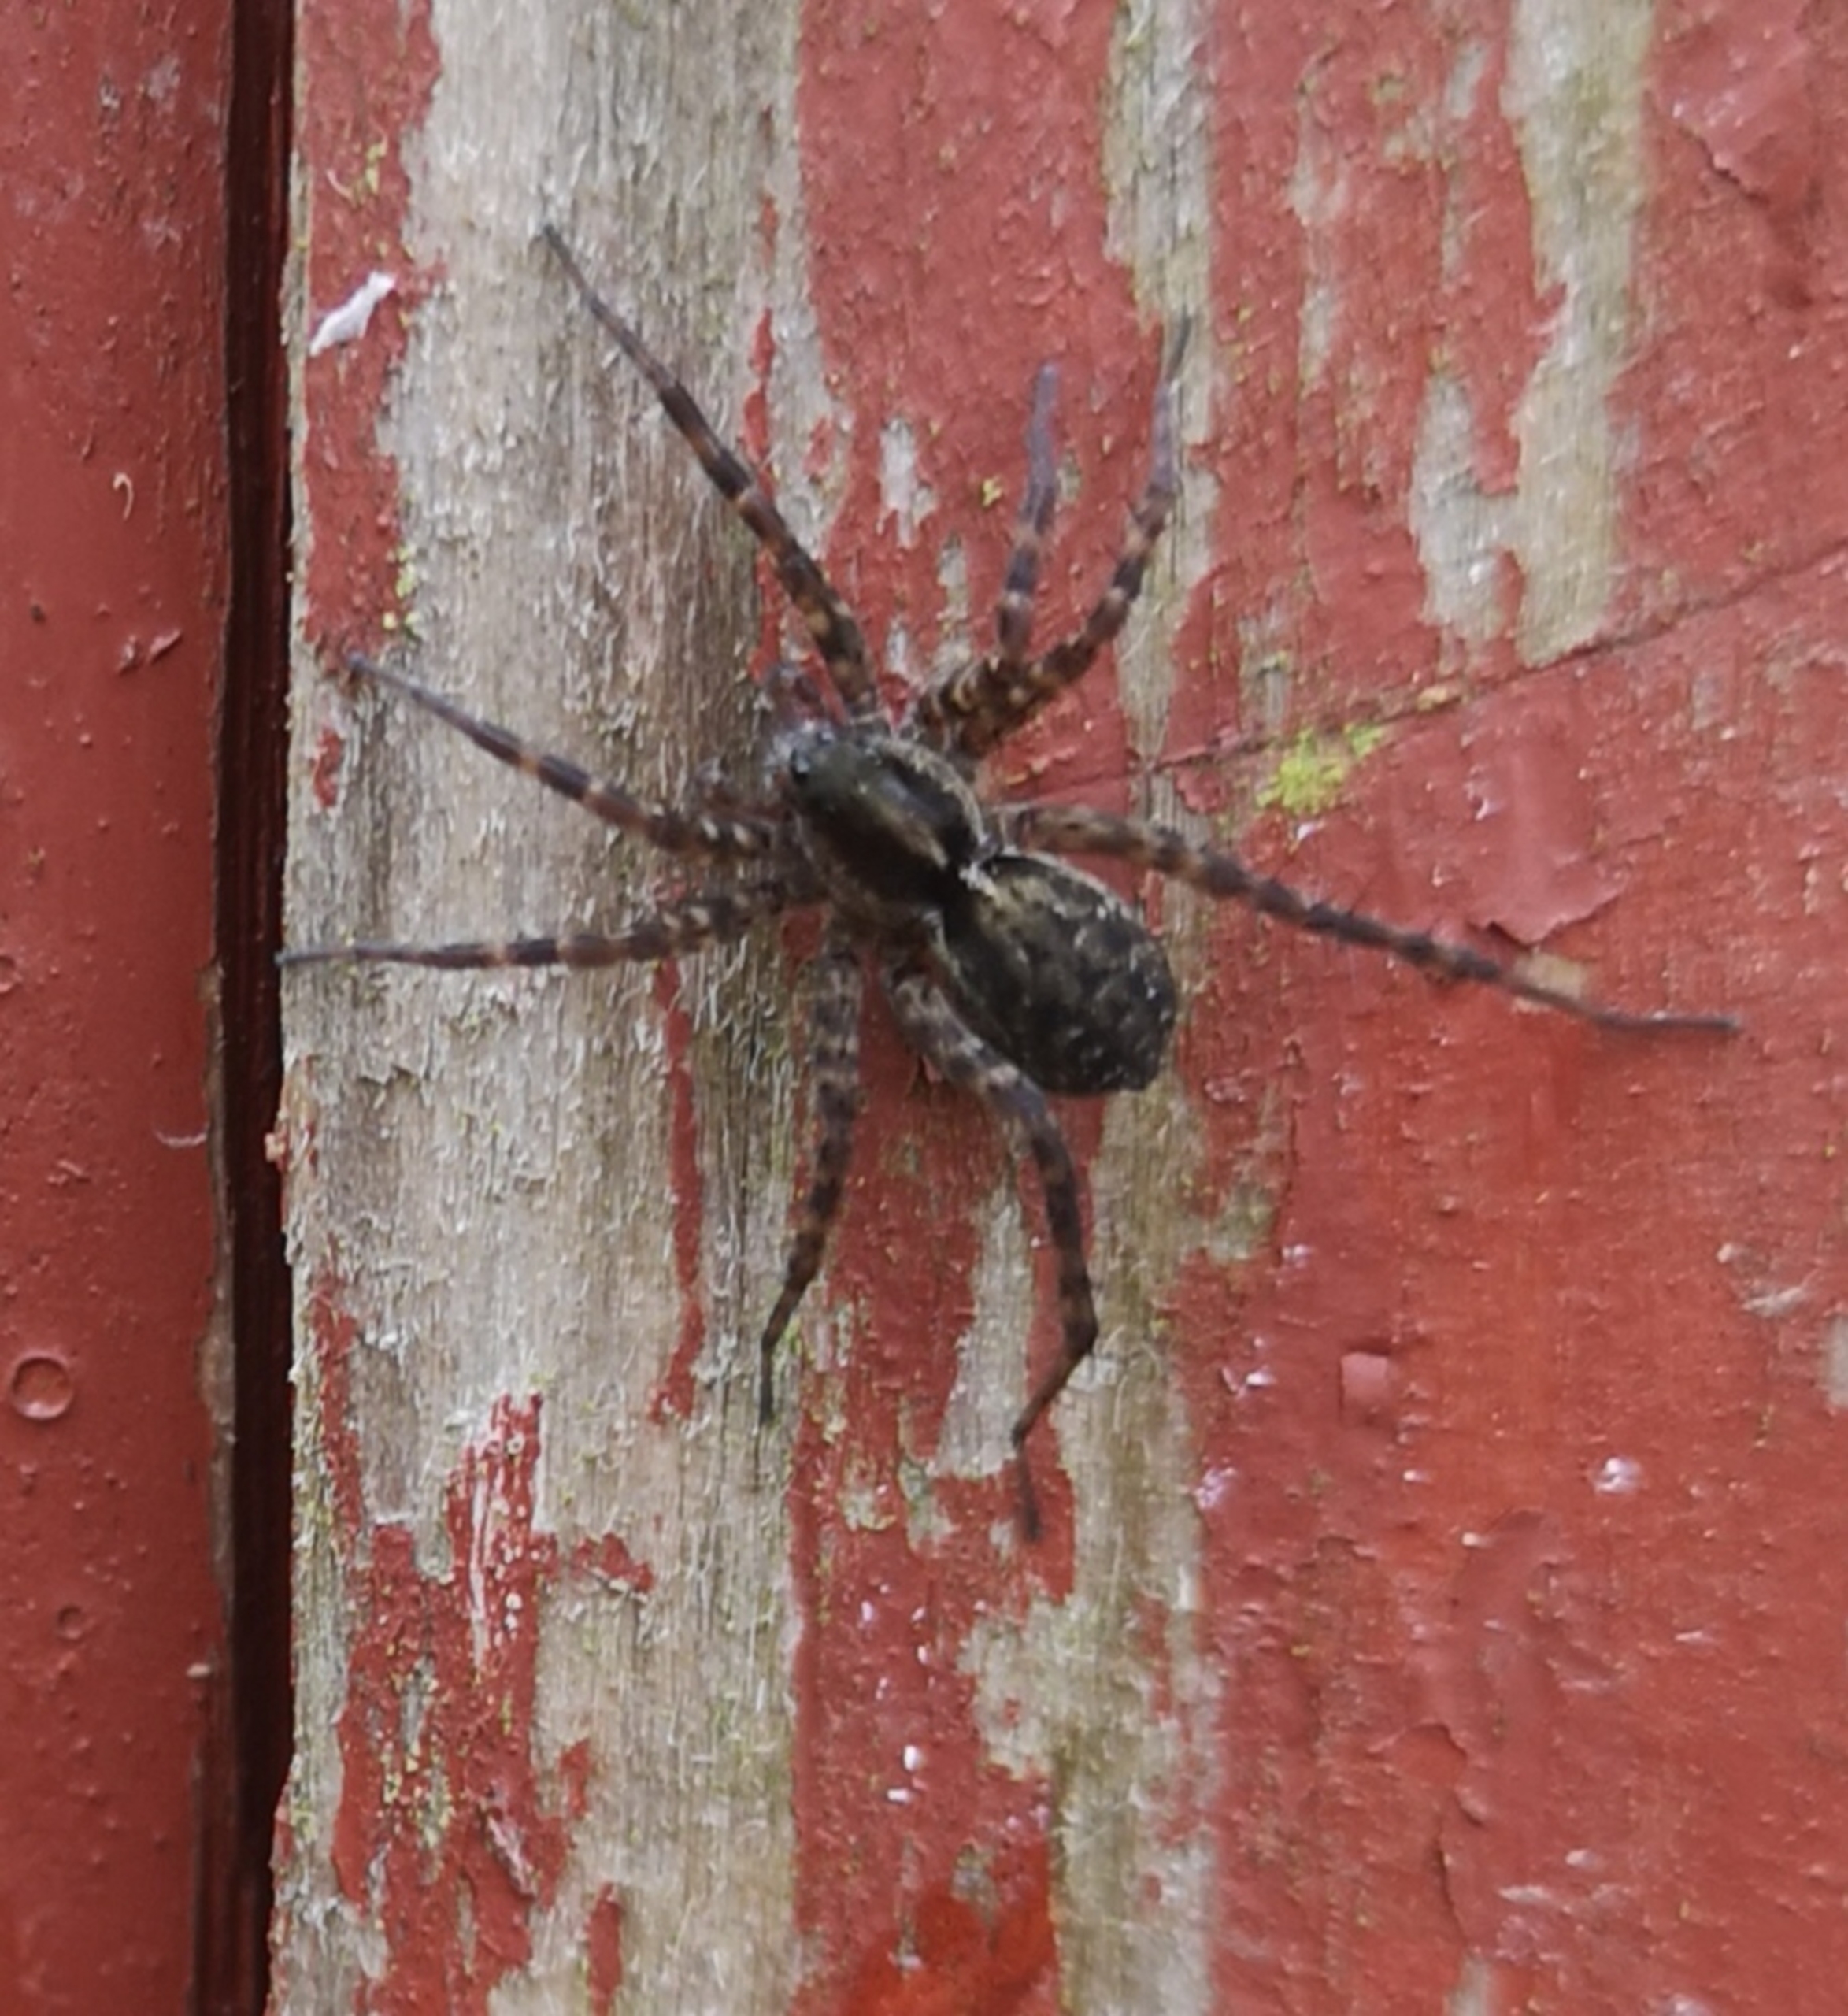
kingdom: Animalia
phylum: Arthropoda
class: Arachnida
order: Araneae
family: Lycosidae
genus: Pardosa
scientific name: Pardosa
